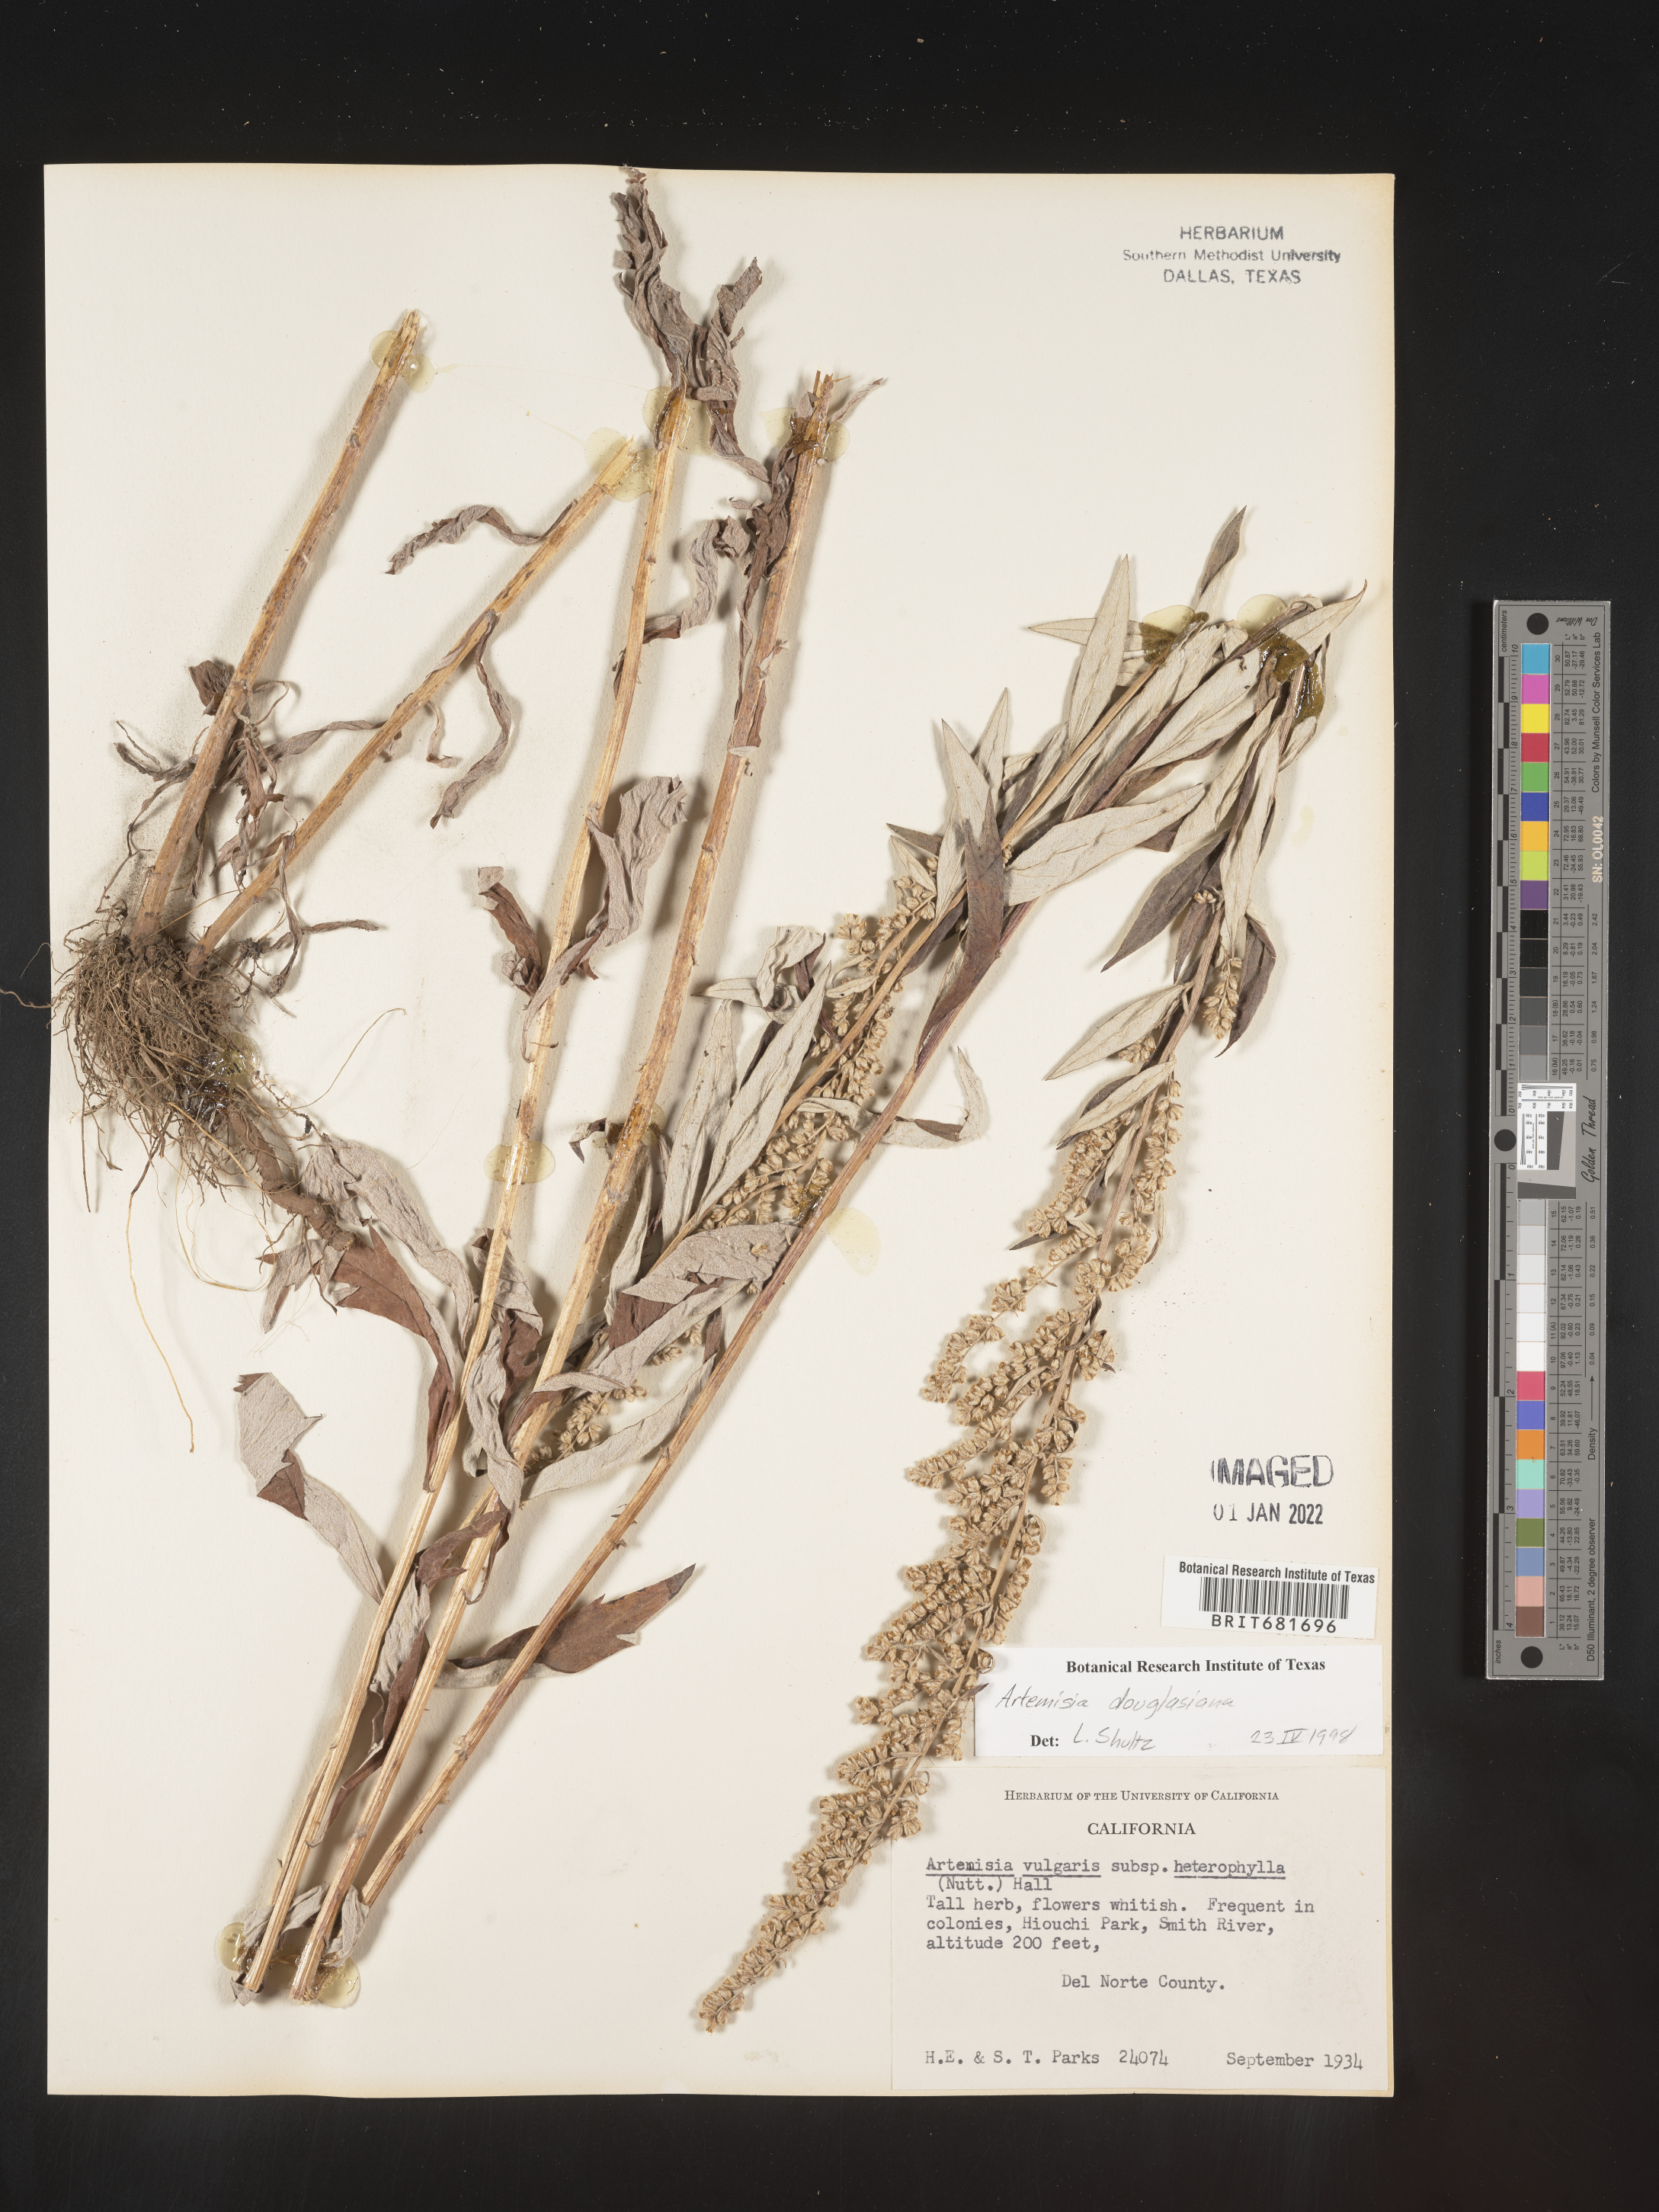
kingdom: Plantae
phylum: Tracheophyta
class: Magnoliopsida
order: Asterales
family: Asteraceae
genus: Artemisia
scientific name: Artemisia douglasiana
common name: Northwest mugwort
